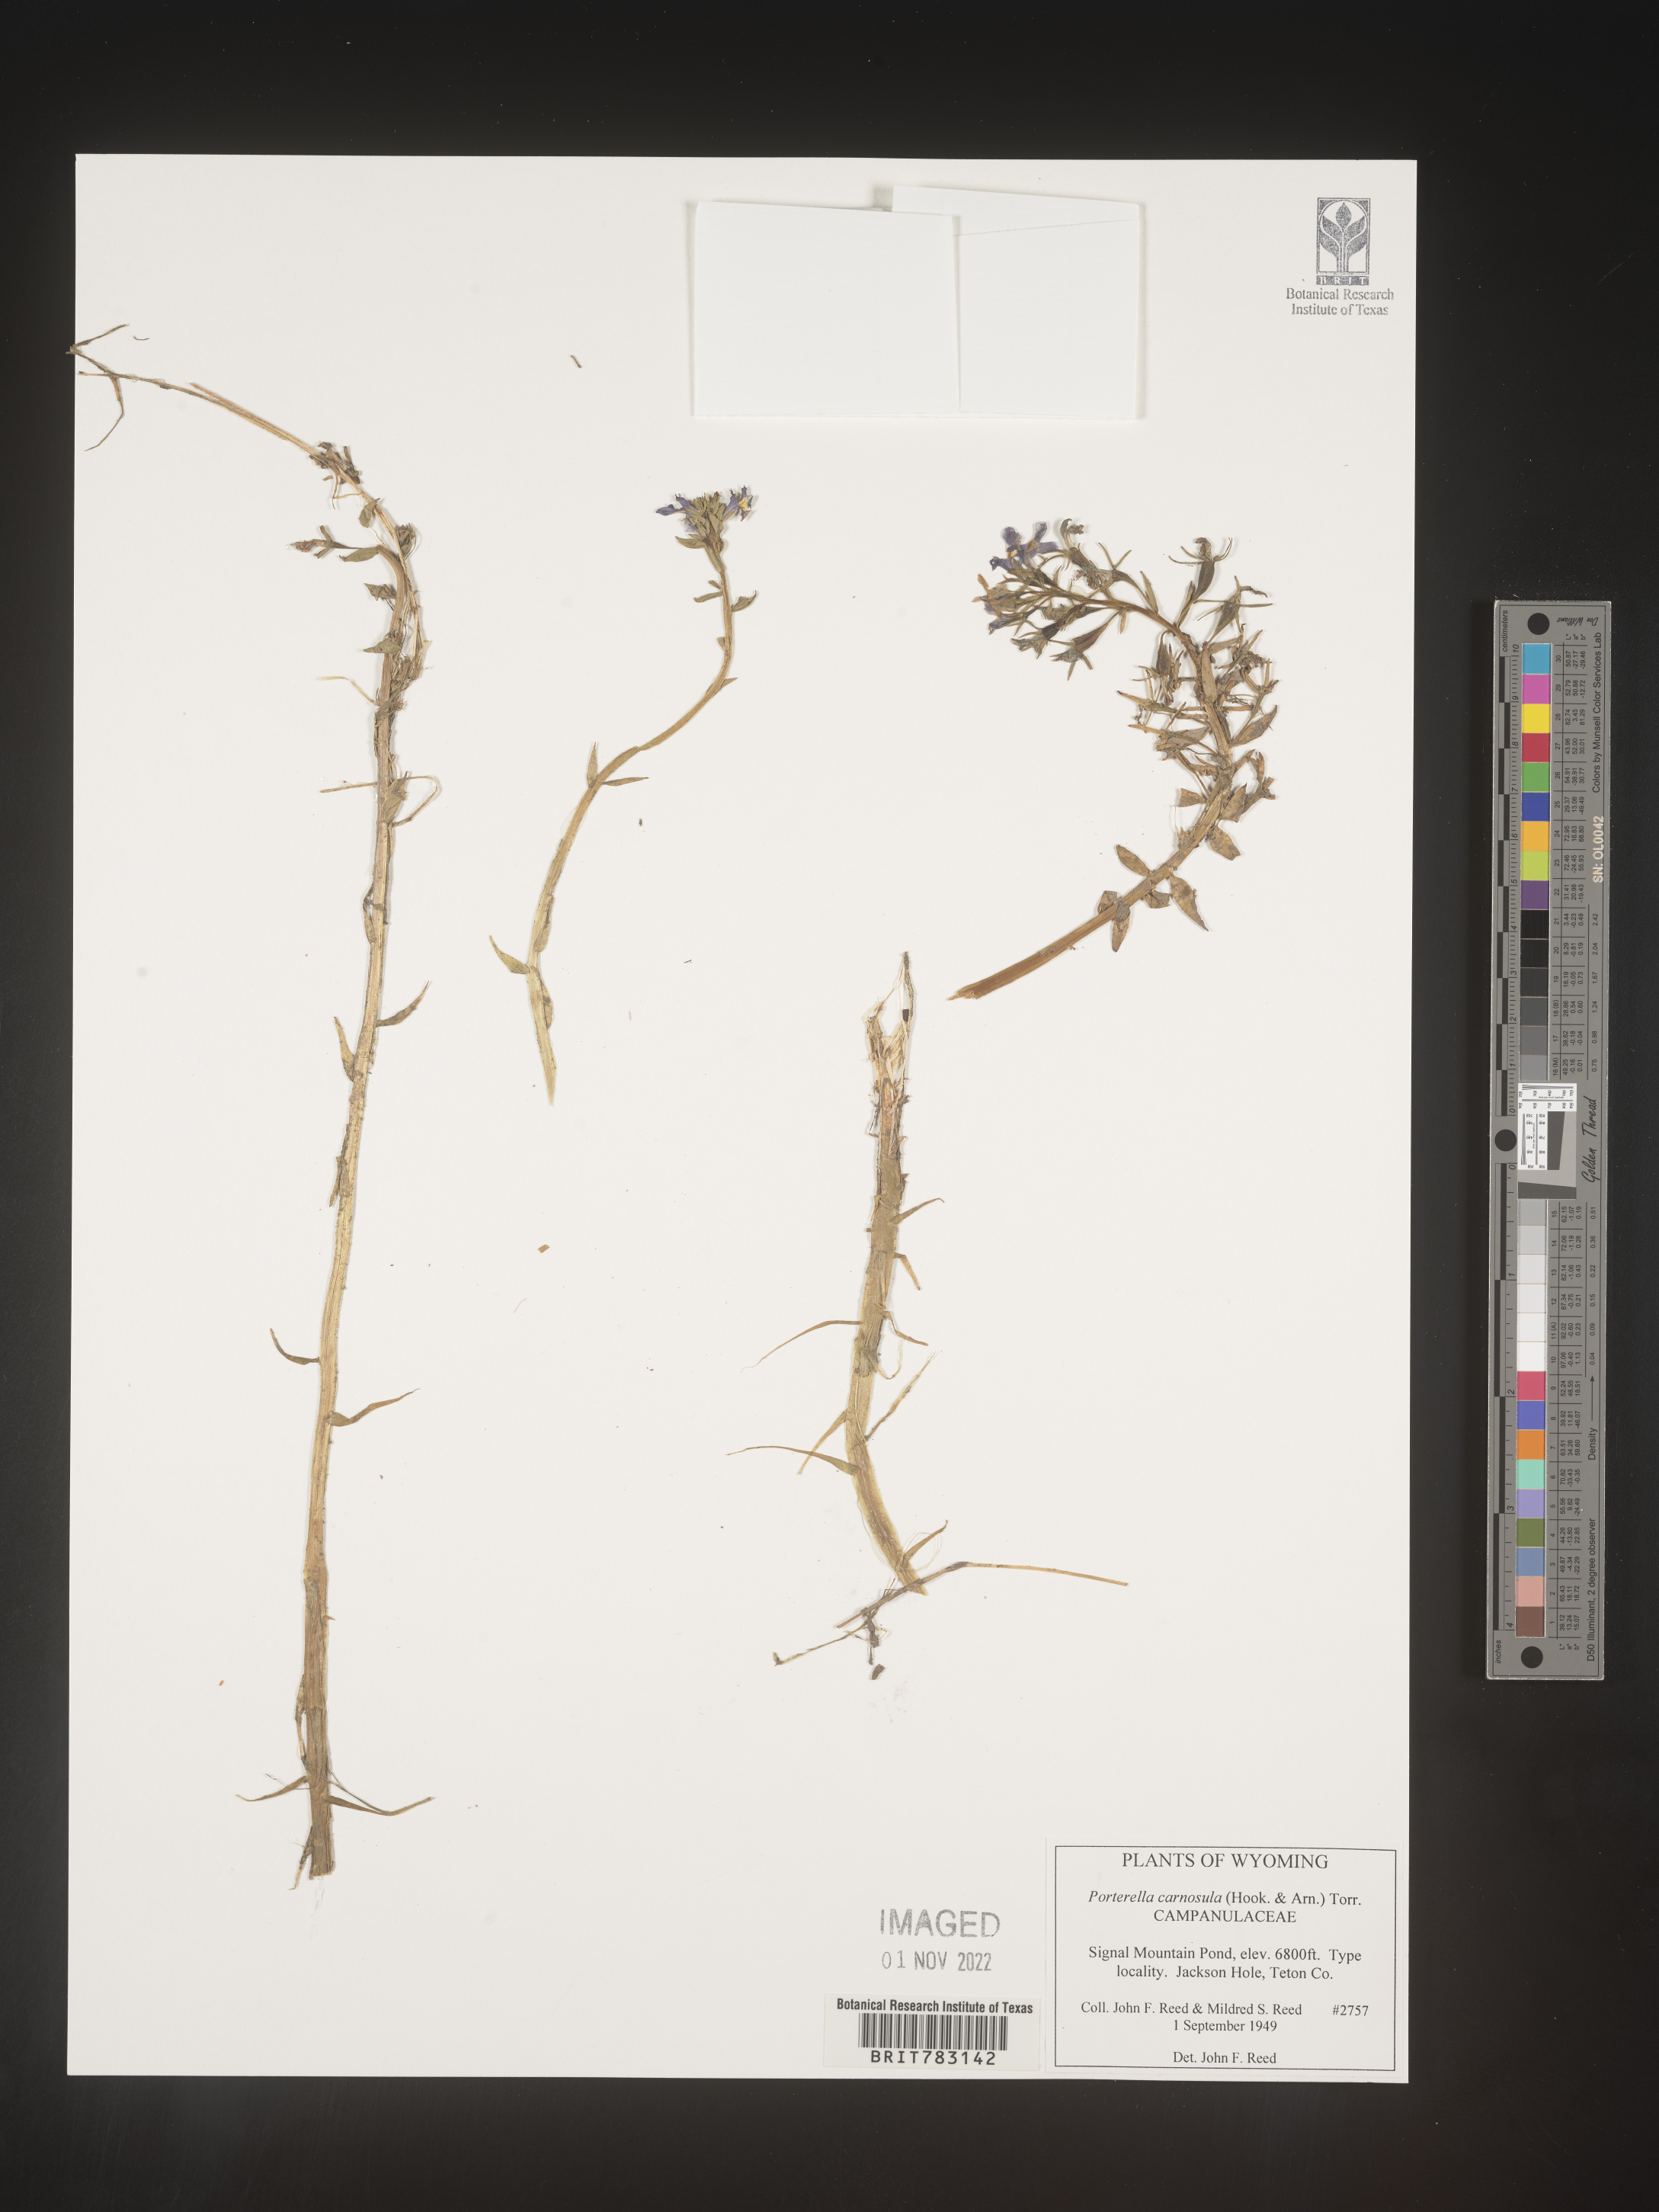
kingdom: Plantae
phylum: Tracheophyta
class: Magnoliopsida
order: Asterales
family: Campanulaceae
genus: Porterella
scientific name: Porterella
